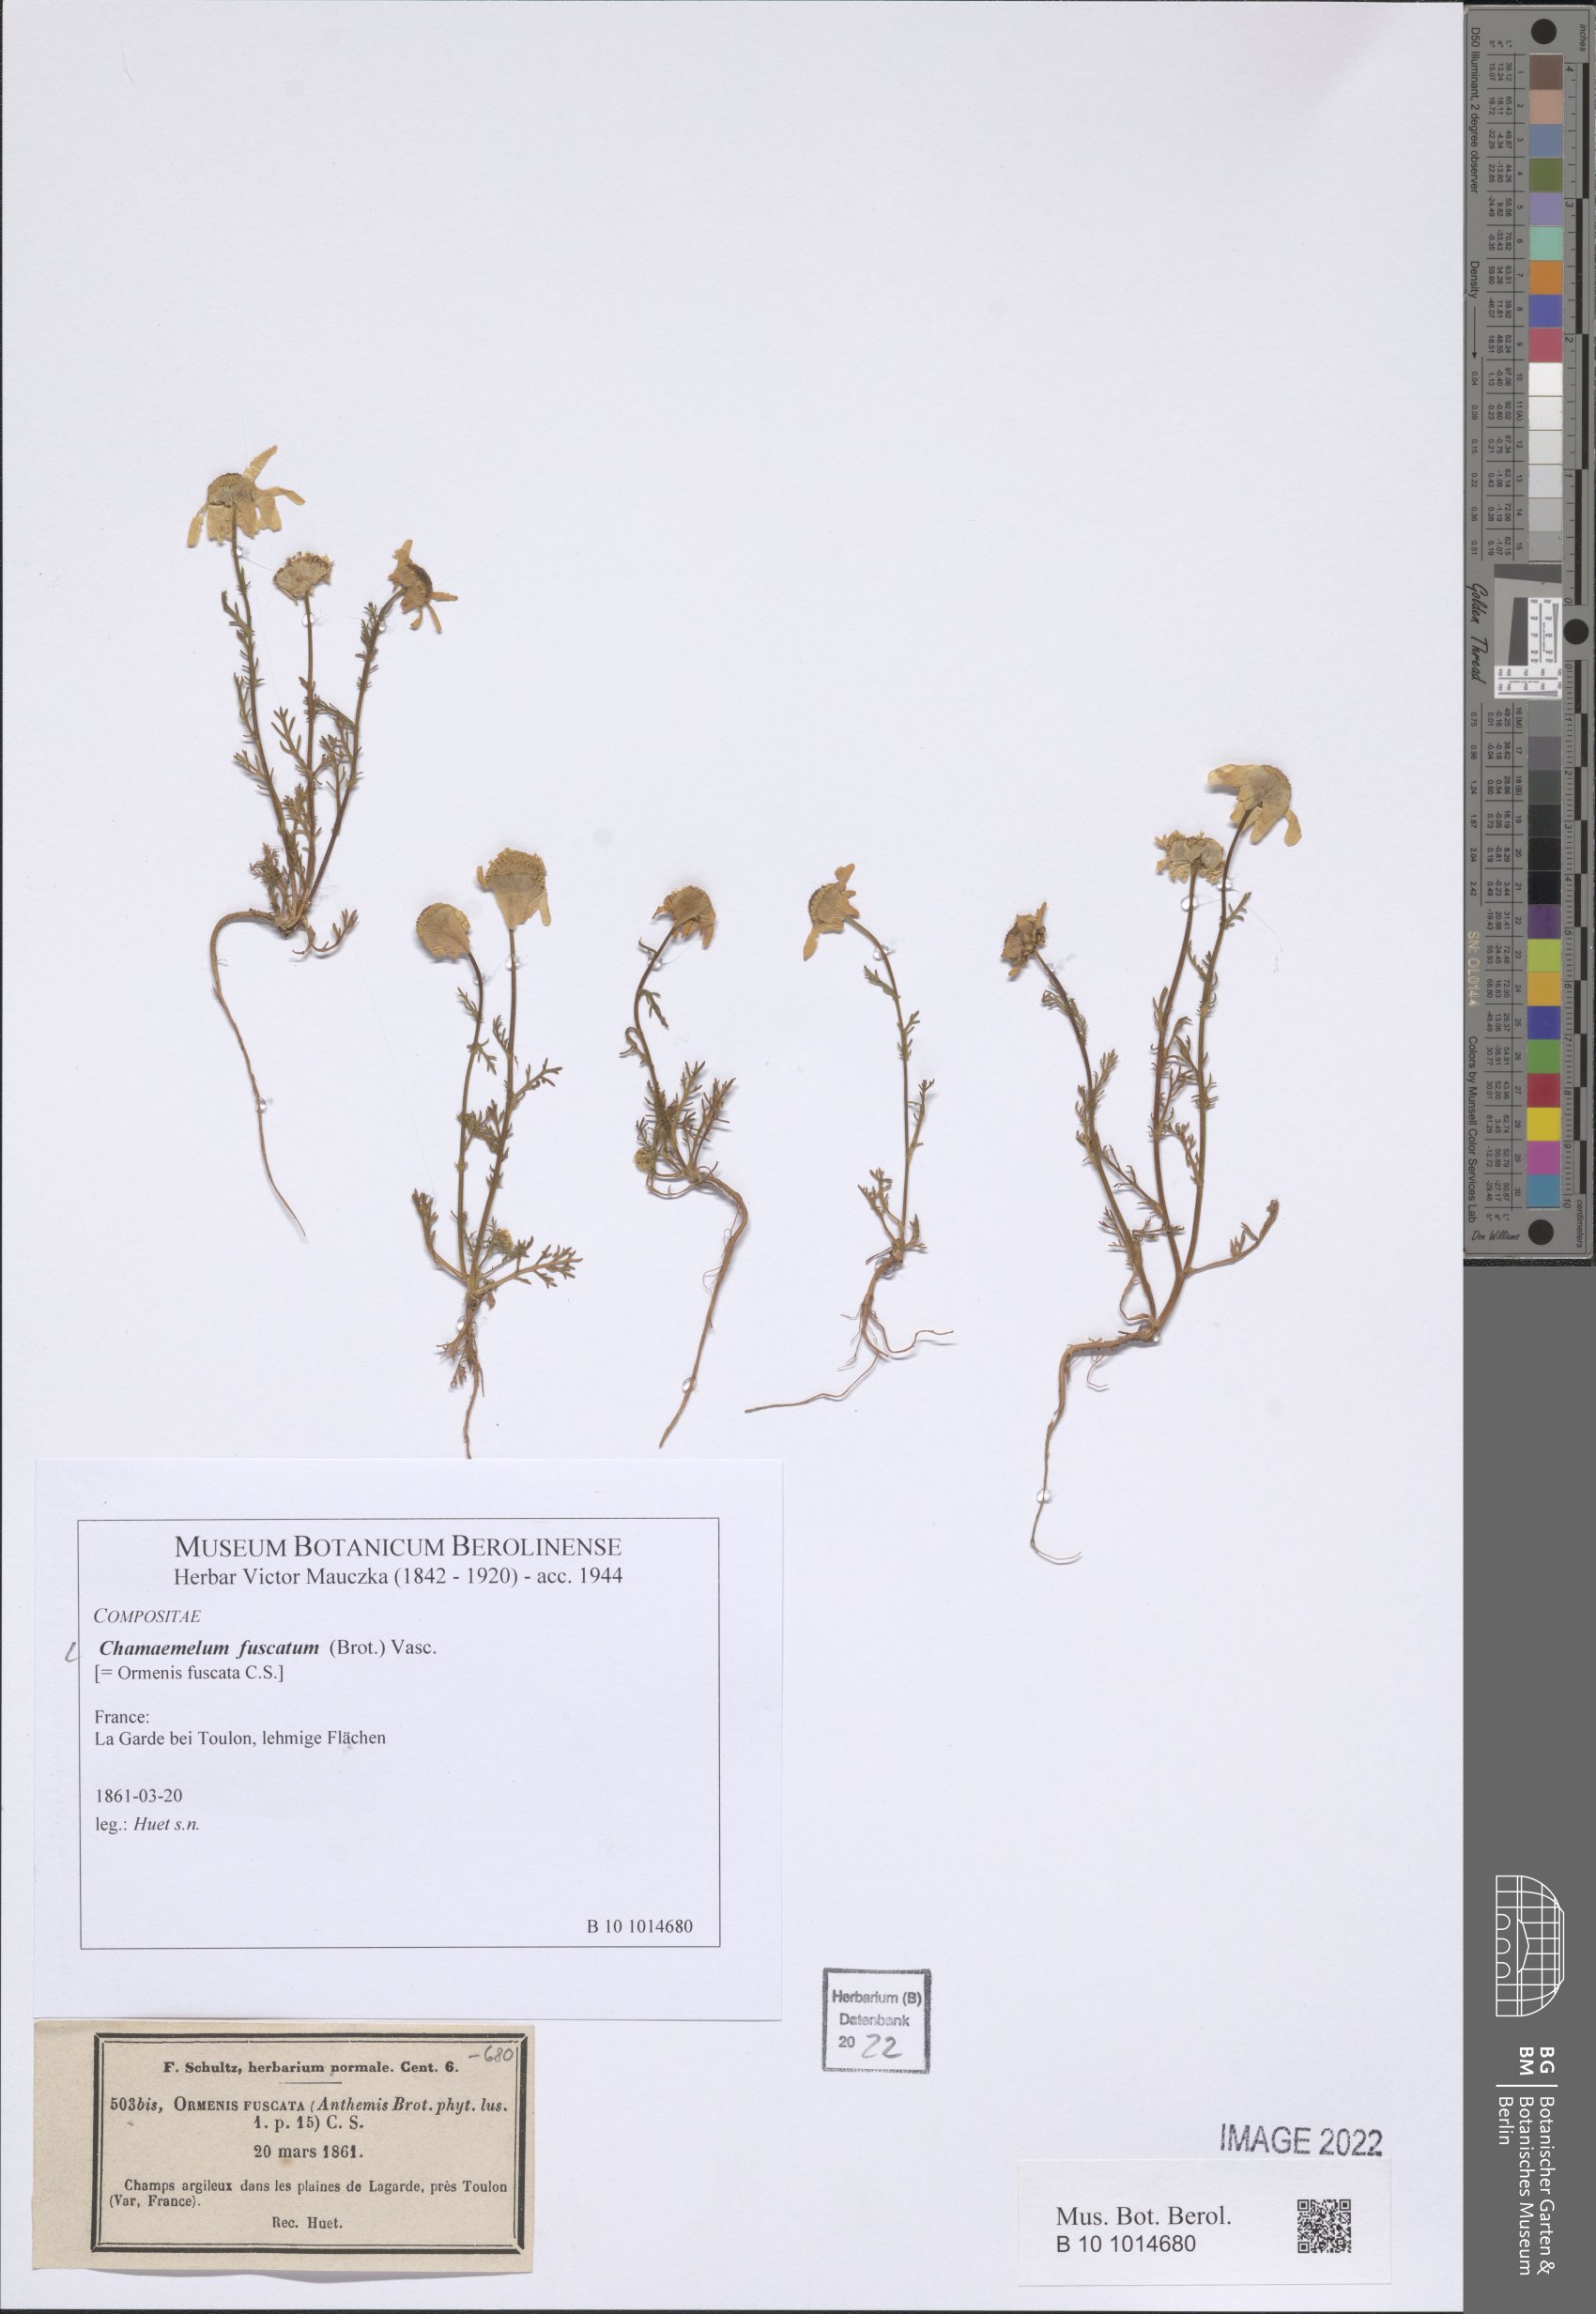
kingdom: Plantae
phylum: Tracheophyta
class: Magnoliopsida
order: Asterales
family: Asteraceae
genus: Chamaemelum
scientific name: Chamaemelum fuscatum
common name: Chamomile
